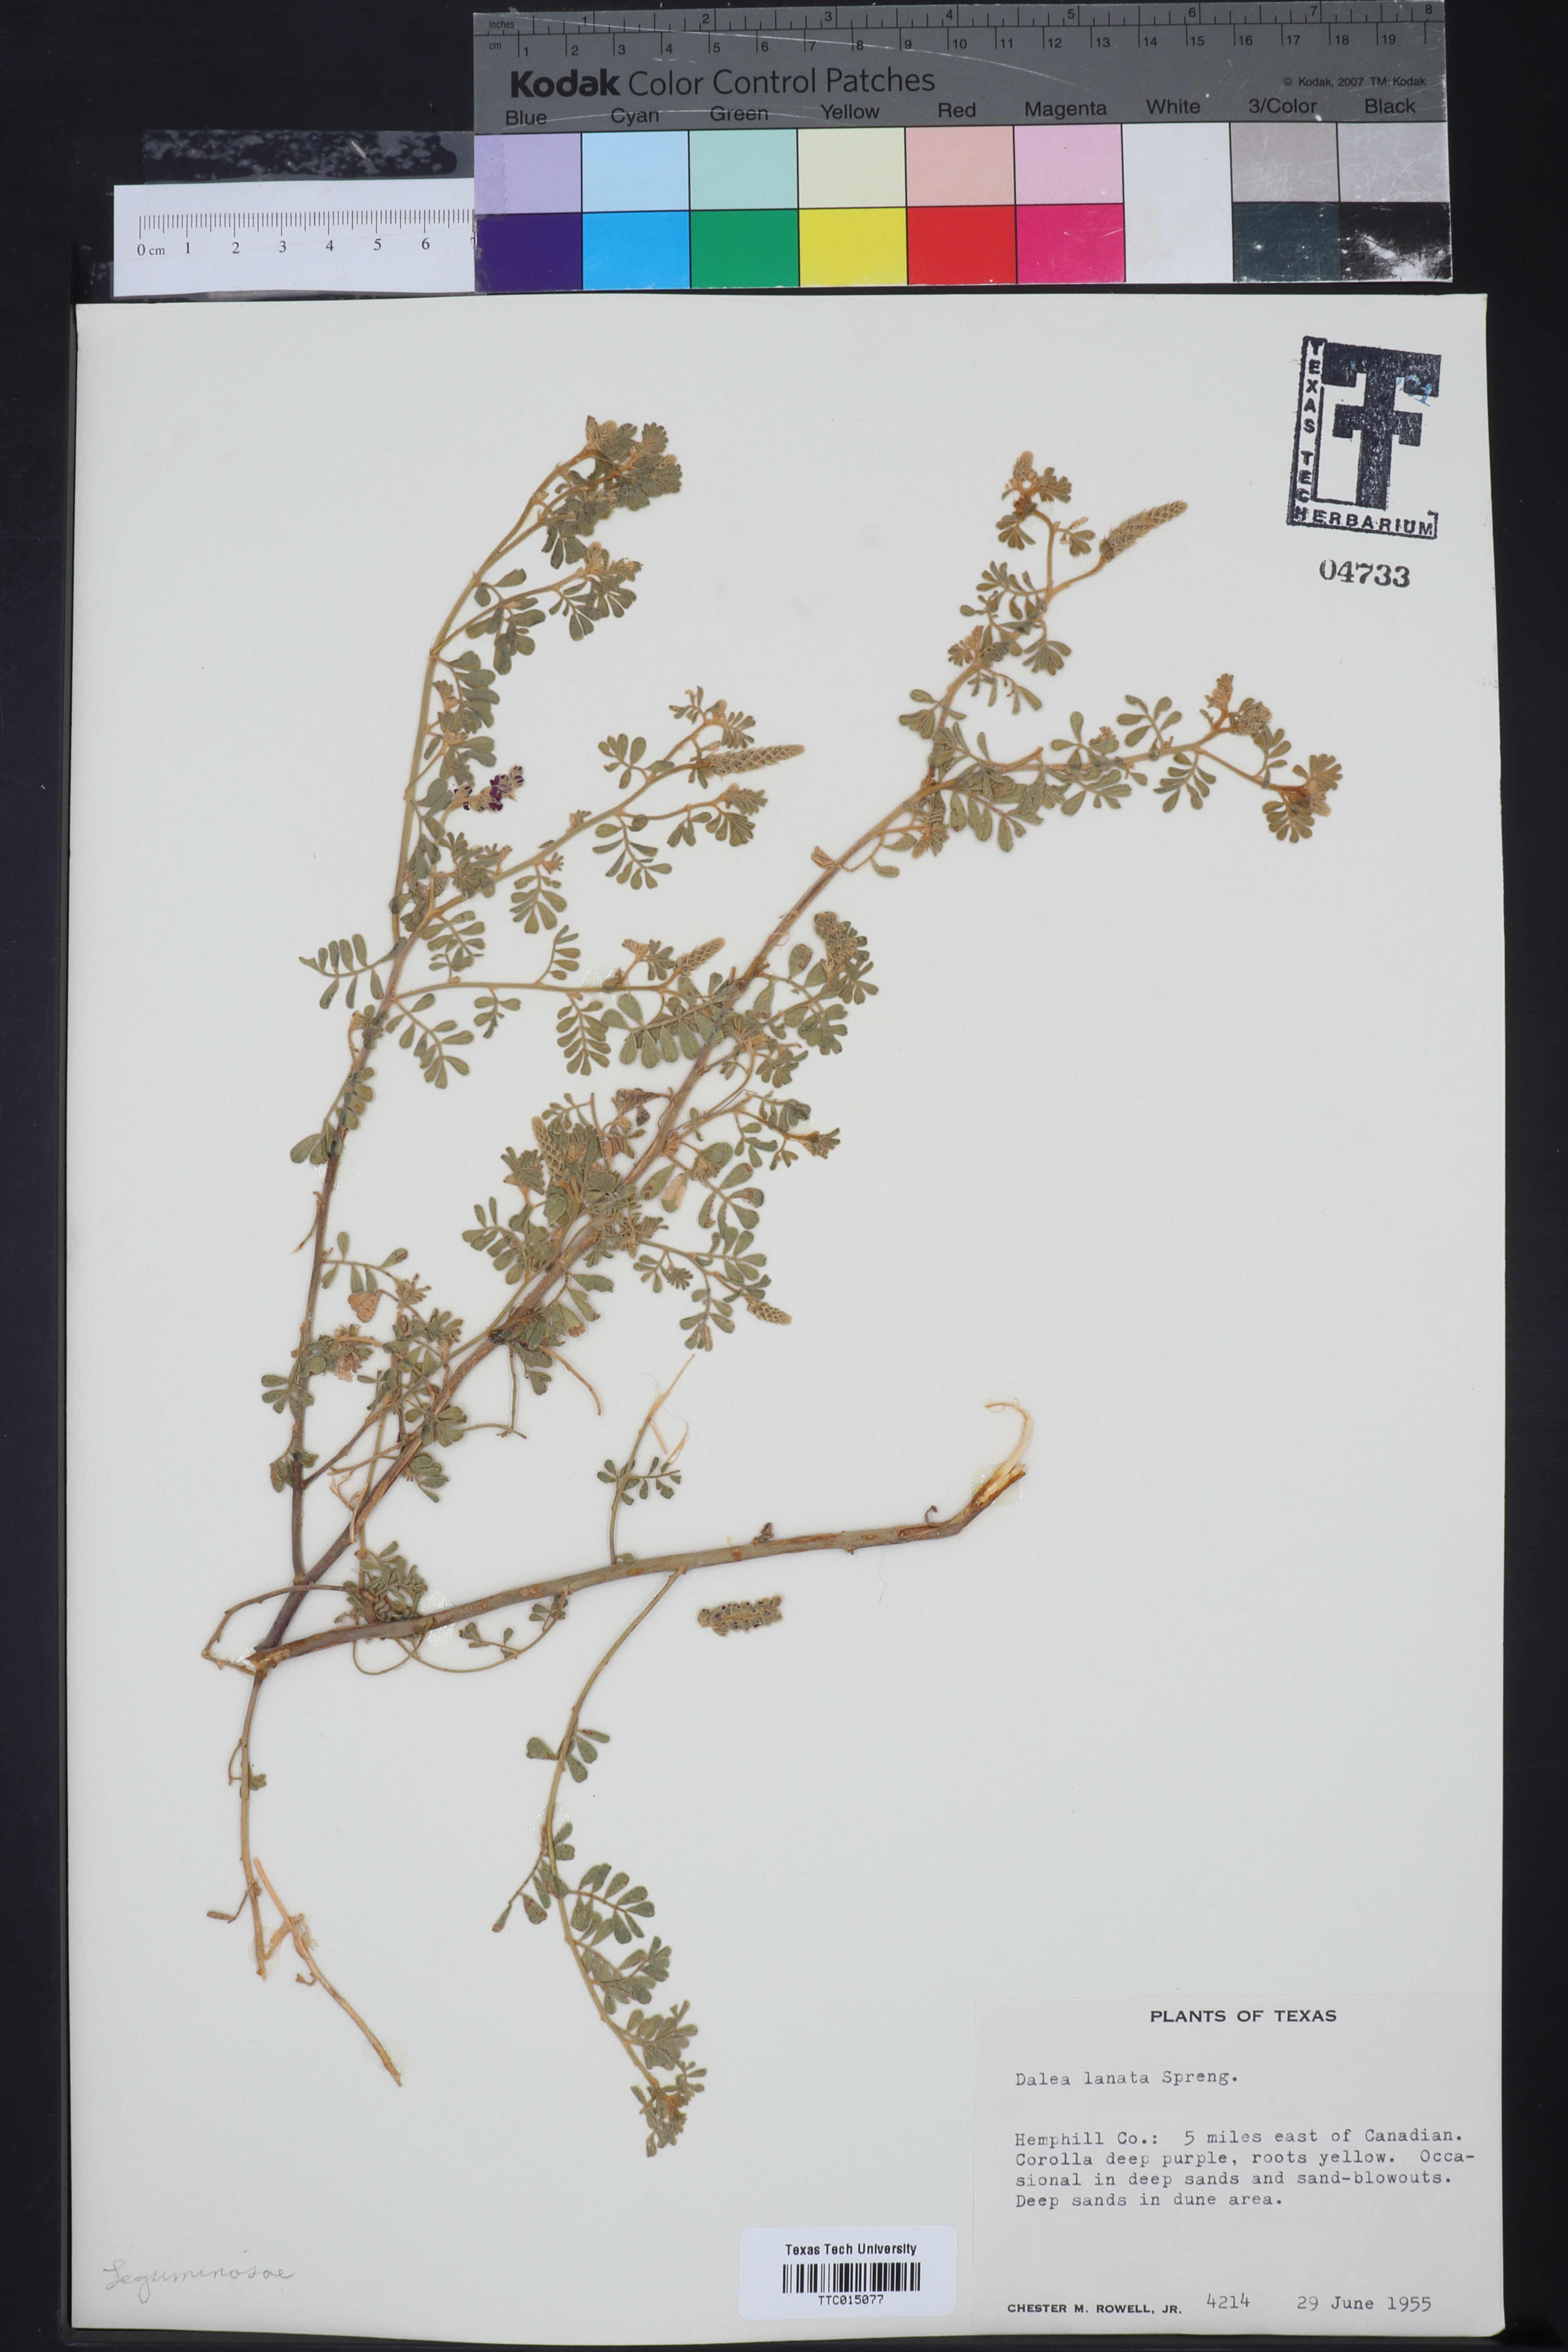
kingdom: Plantae
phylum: Tracheophyta
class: Magnoliopsida
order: Fabales
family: Fabaceae
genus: Dalea
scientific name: Dalea lanata
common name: Woolly dalea
